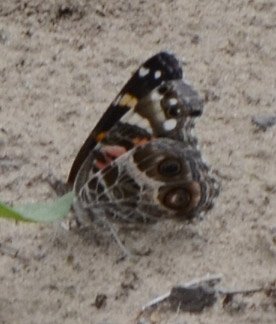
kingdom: Animalia
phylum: Arthropoda
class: Insecta
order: Lepidoptera
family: Nymphalidae
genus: Vanessa
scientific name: Vanessa virginiensis
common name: American Lady
